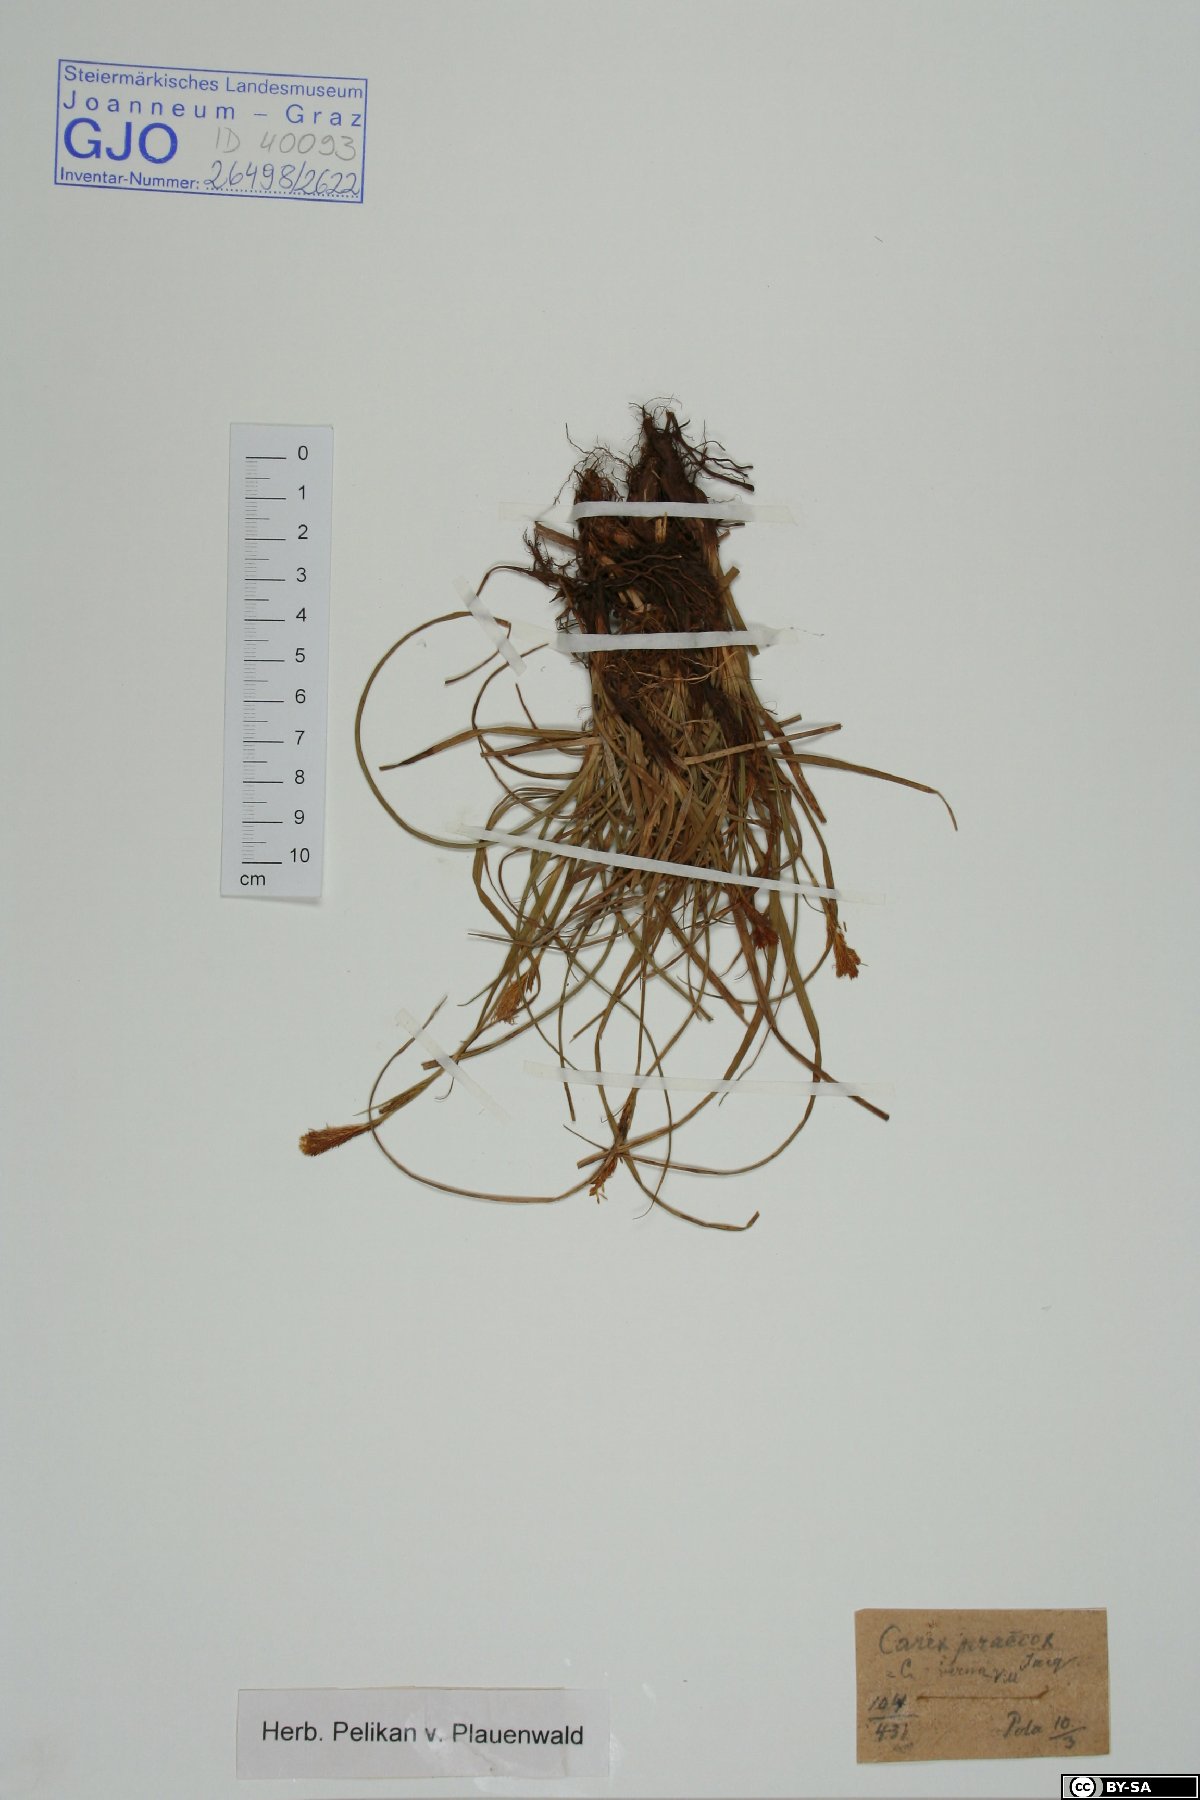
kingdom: Plantae
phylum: Tracheophyta
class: Liliopsida
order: Poales
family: Cyperaceae
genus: Carex
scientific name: Carex praecox
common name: Early sedge
